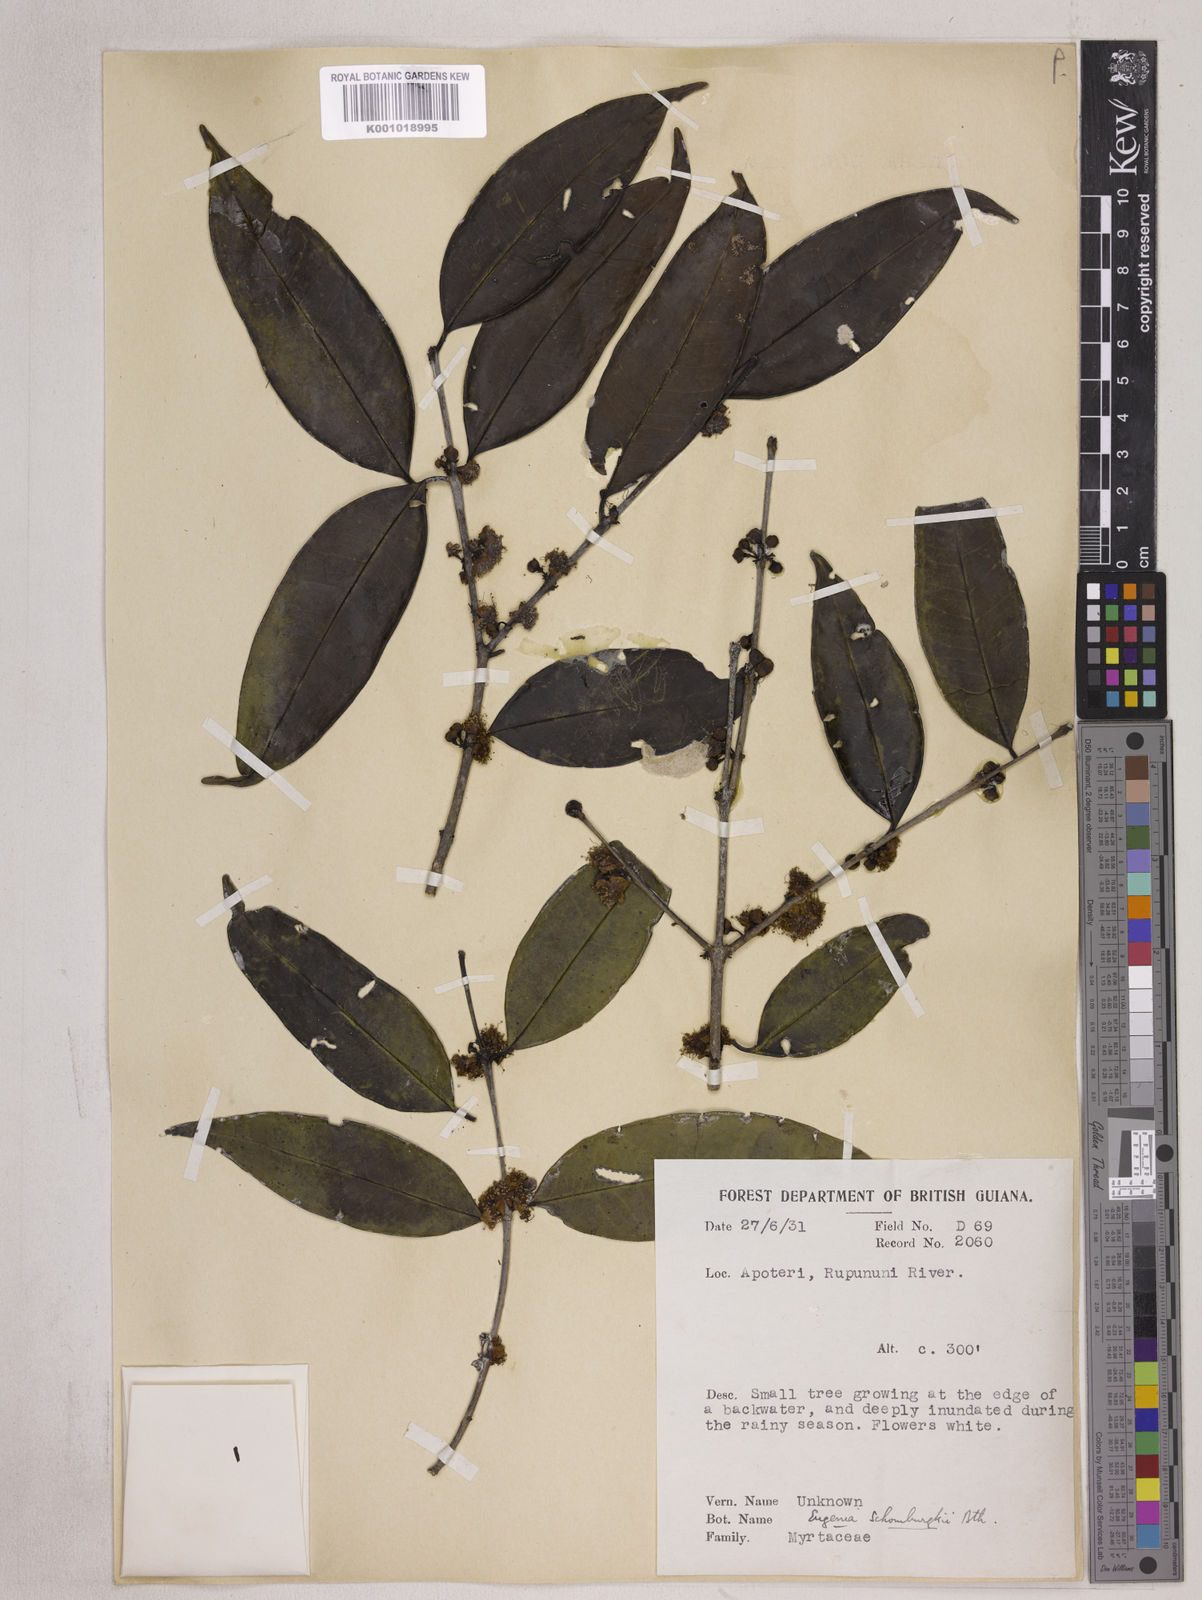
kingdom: Plantae
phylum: Tracheophyta
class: Magnoliopsida
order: Myrtales
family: Myrtaceae
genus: Eugenia
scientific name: Eugenia lambertiana
